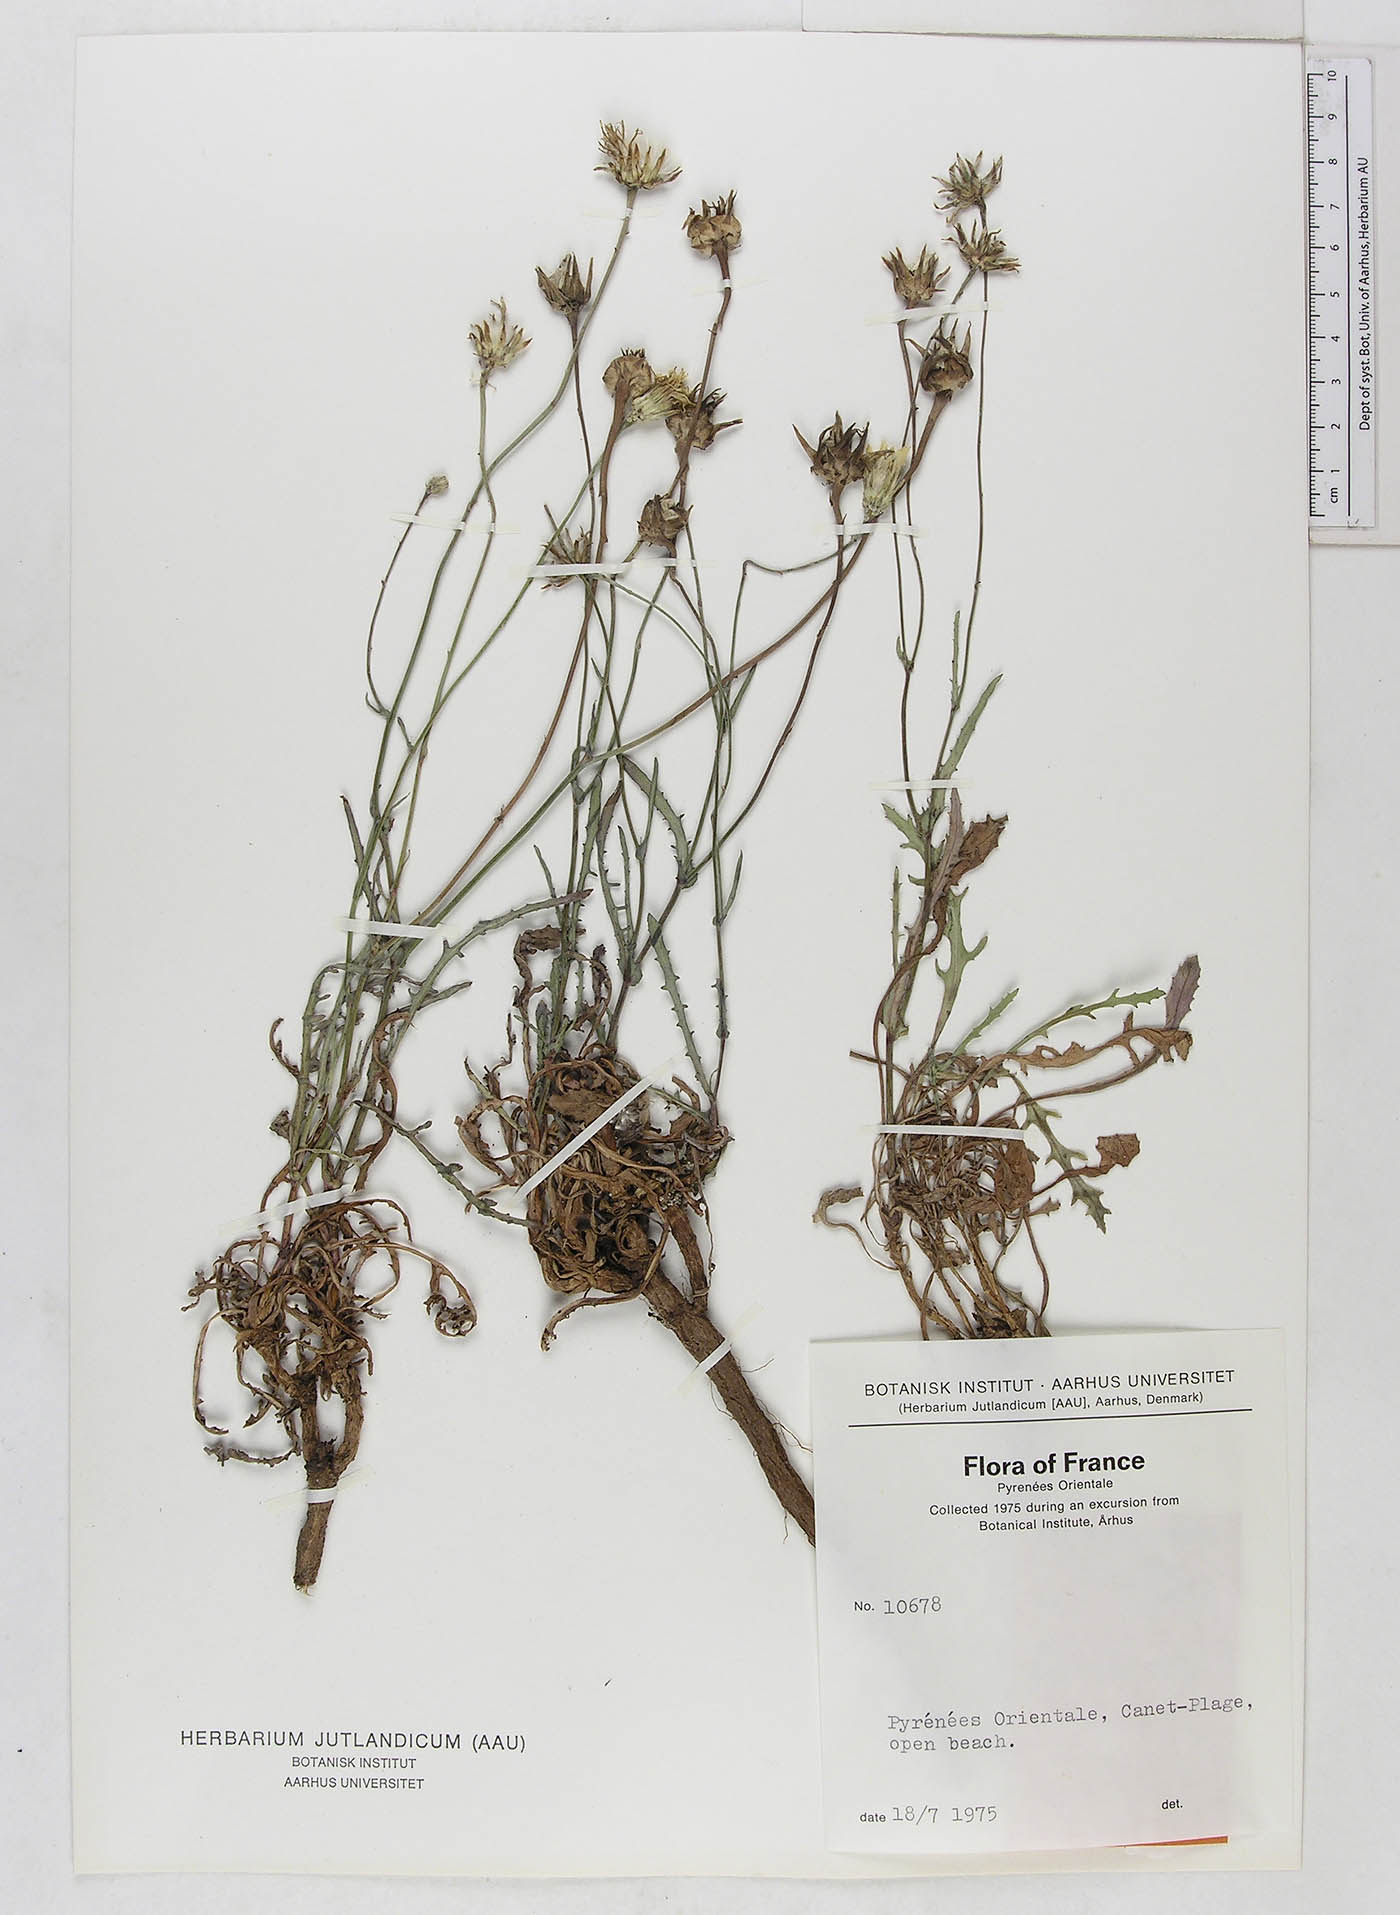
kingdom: Plantae
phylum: Tracheophyta
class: Magnoliopsida
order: Asterales
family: Asteraceae
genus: Reichardia
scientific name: Reichardia
